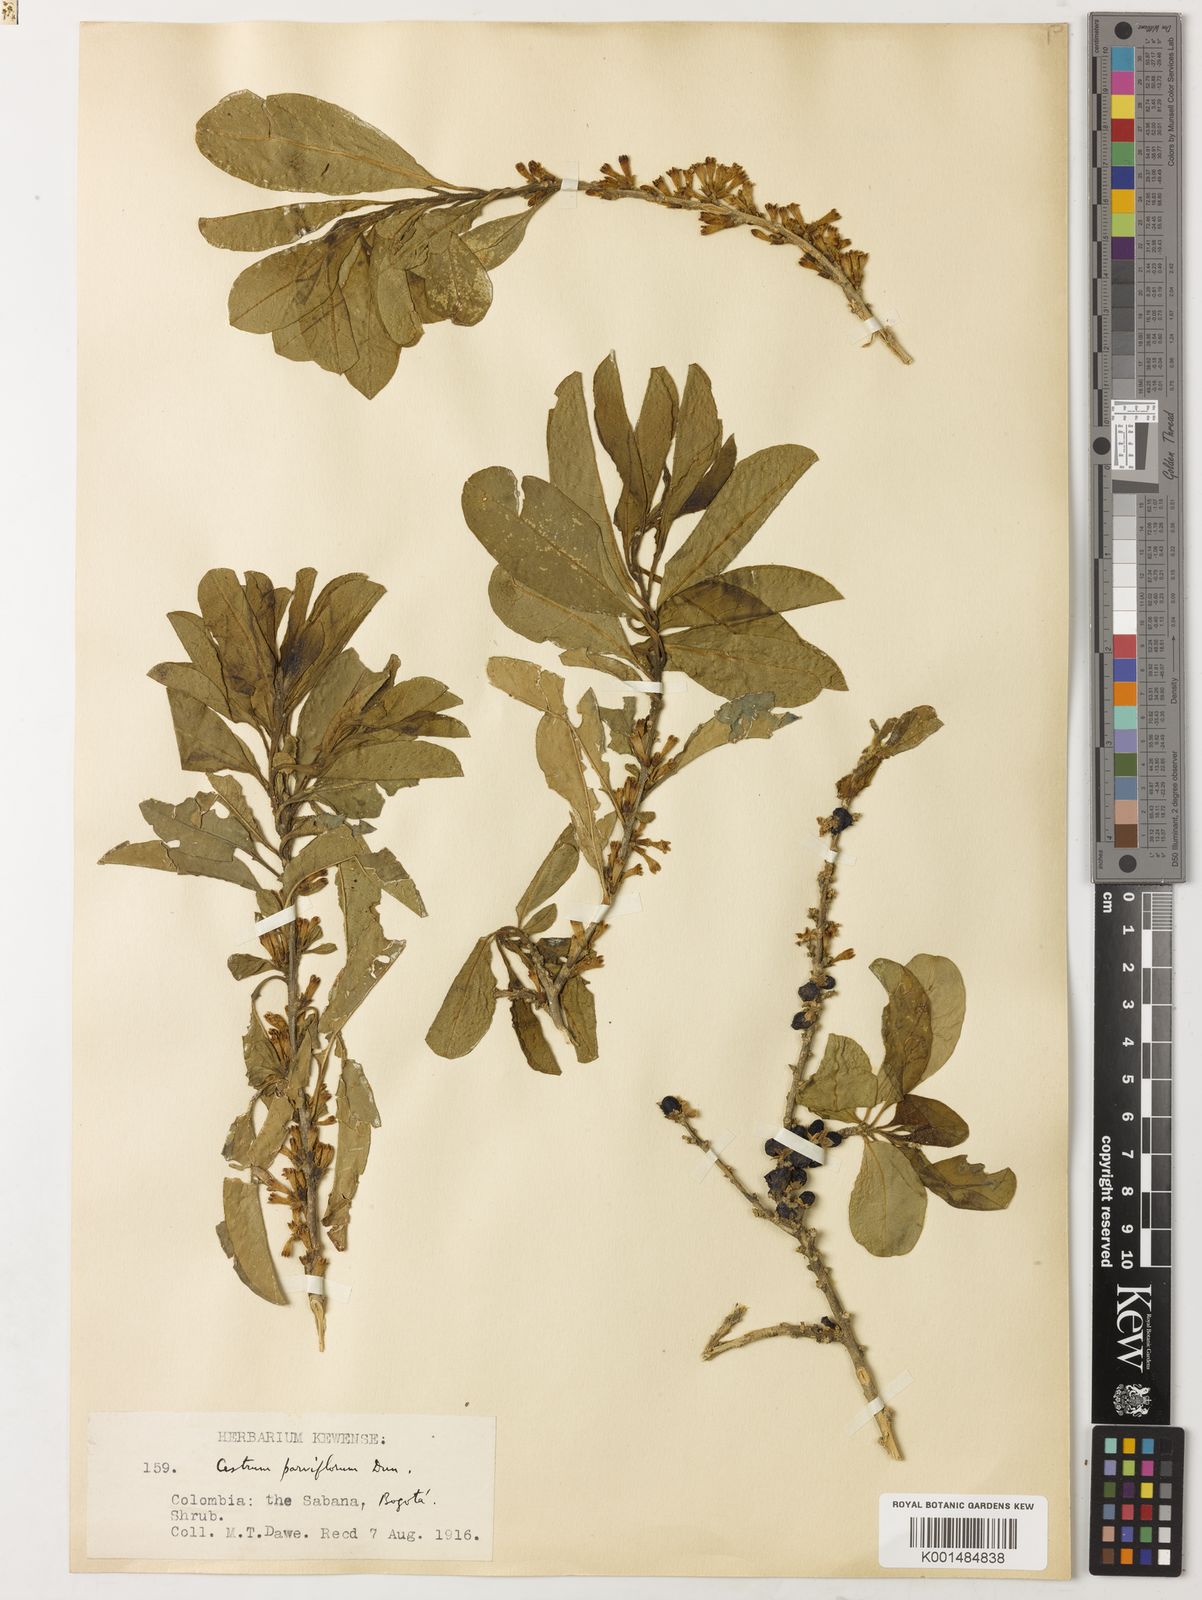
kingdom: Plantae
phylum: Tracheophyta
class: Magnoliopsida
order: Solanales
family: Solanaceae
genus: Cestrum
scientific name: Cestrum mutisii
